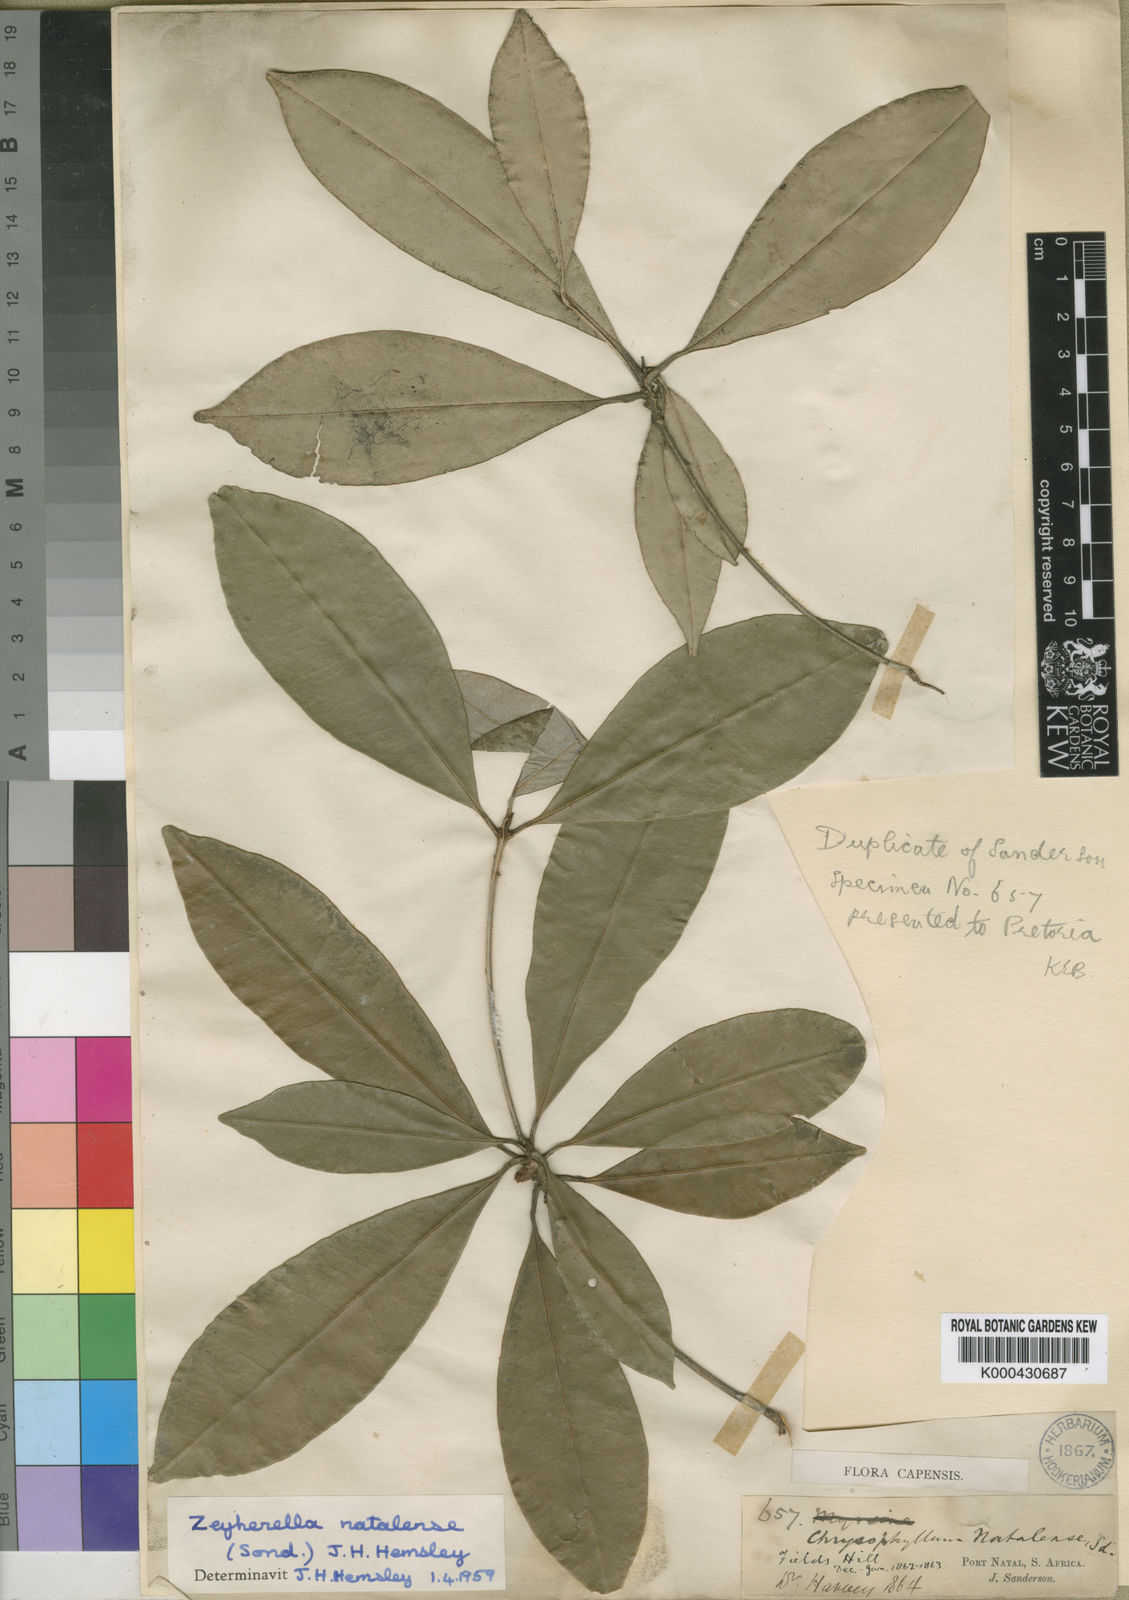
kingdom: Plantae
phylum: Tracheophyta
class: Magnoliopsida
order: Ericales
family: Sapotaceae
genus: Englerophytum
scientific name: Englerophytum natalense
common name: Silver-leaved milkplum
